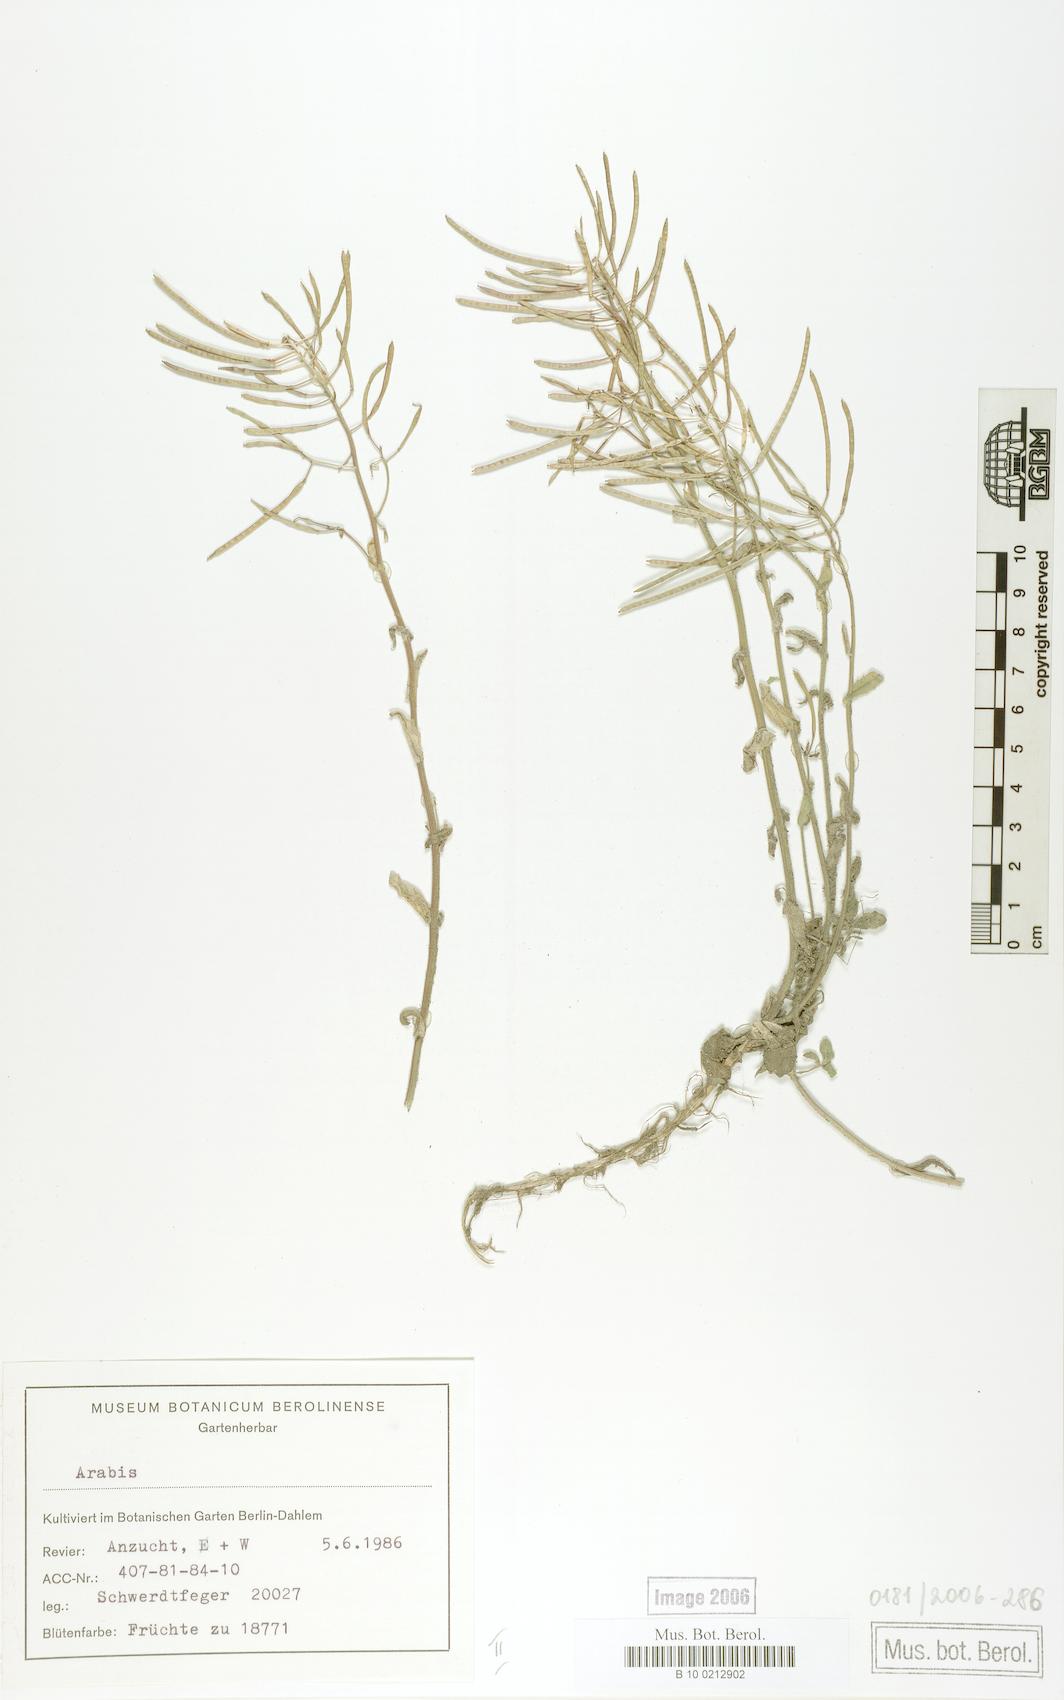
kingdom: Plantae
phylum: Tracheophyta
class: Magnoliopsida
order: Brassicales
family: Brassicaceae
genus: Arabis
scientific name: Arabis caucasica
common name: Gray rockcress
